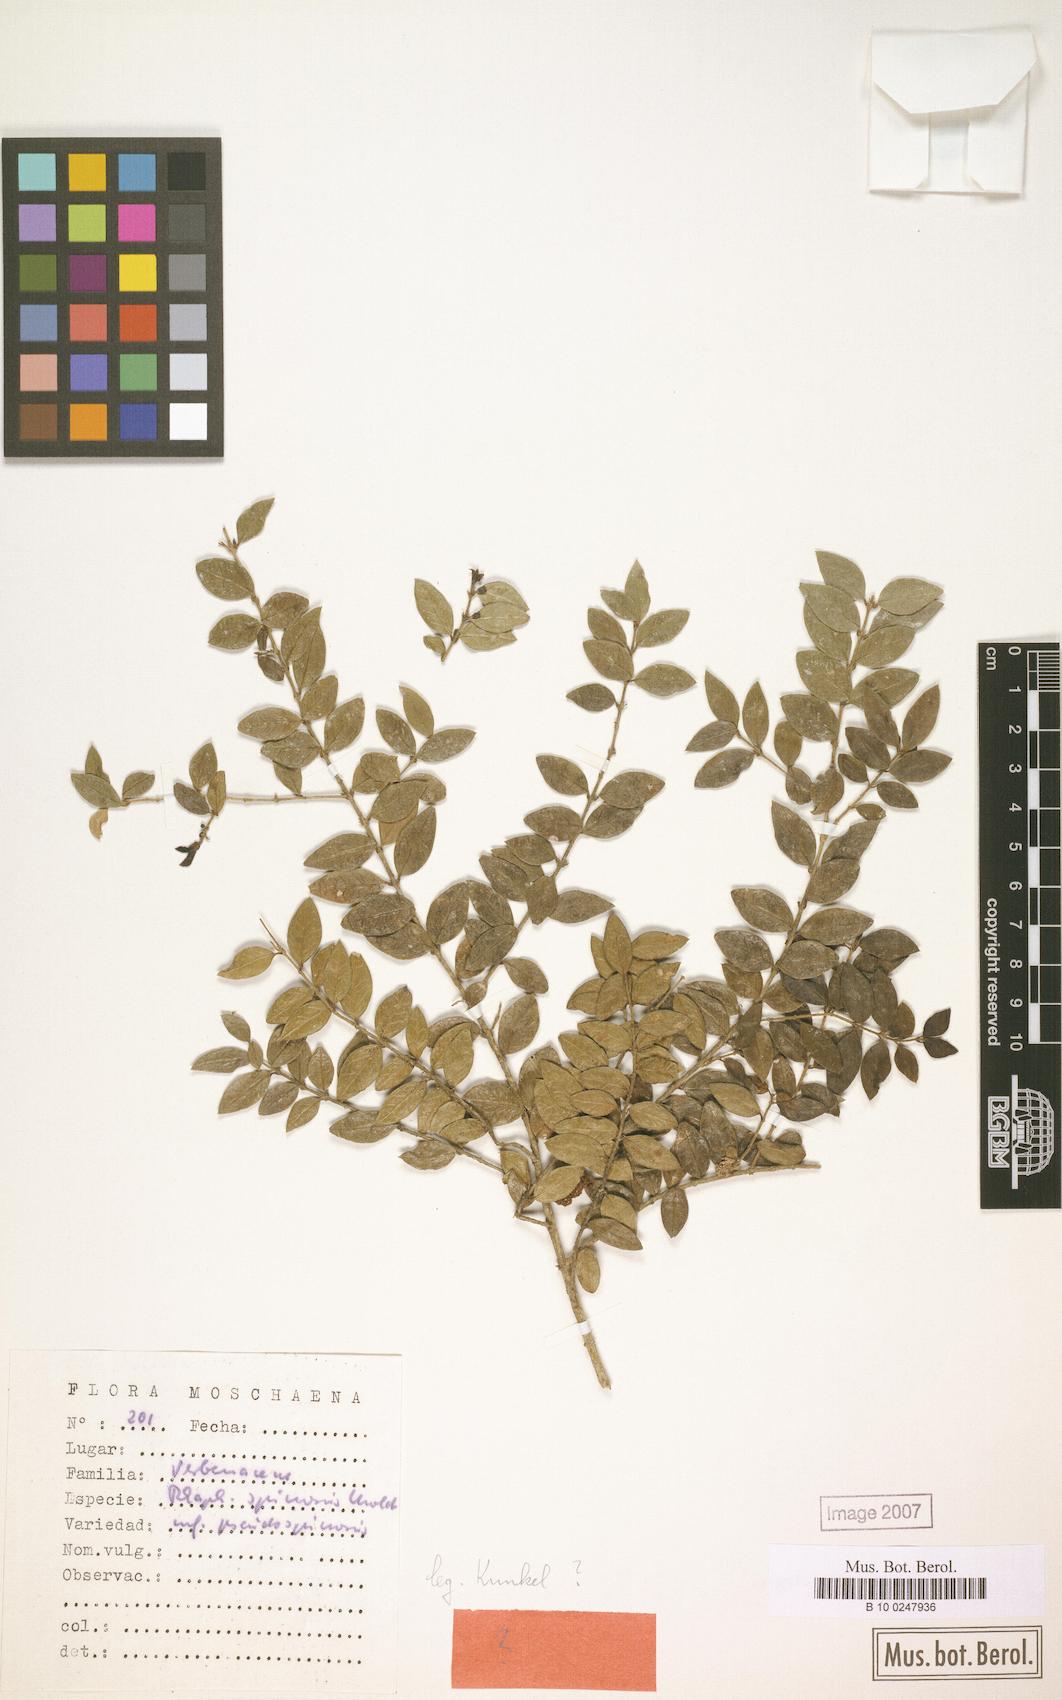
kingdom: Plantae
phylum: Tracheophyta
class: Magnoliopsida
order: Lamiales
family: Verbenaceae
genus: Rhaphithamnus
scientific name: Rhaphithamnus spinosus
